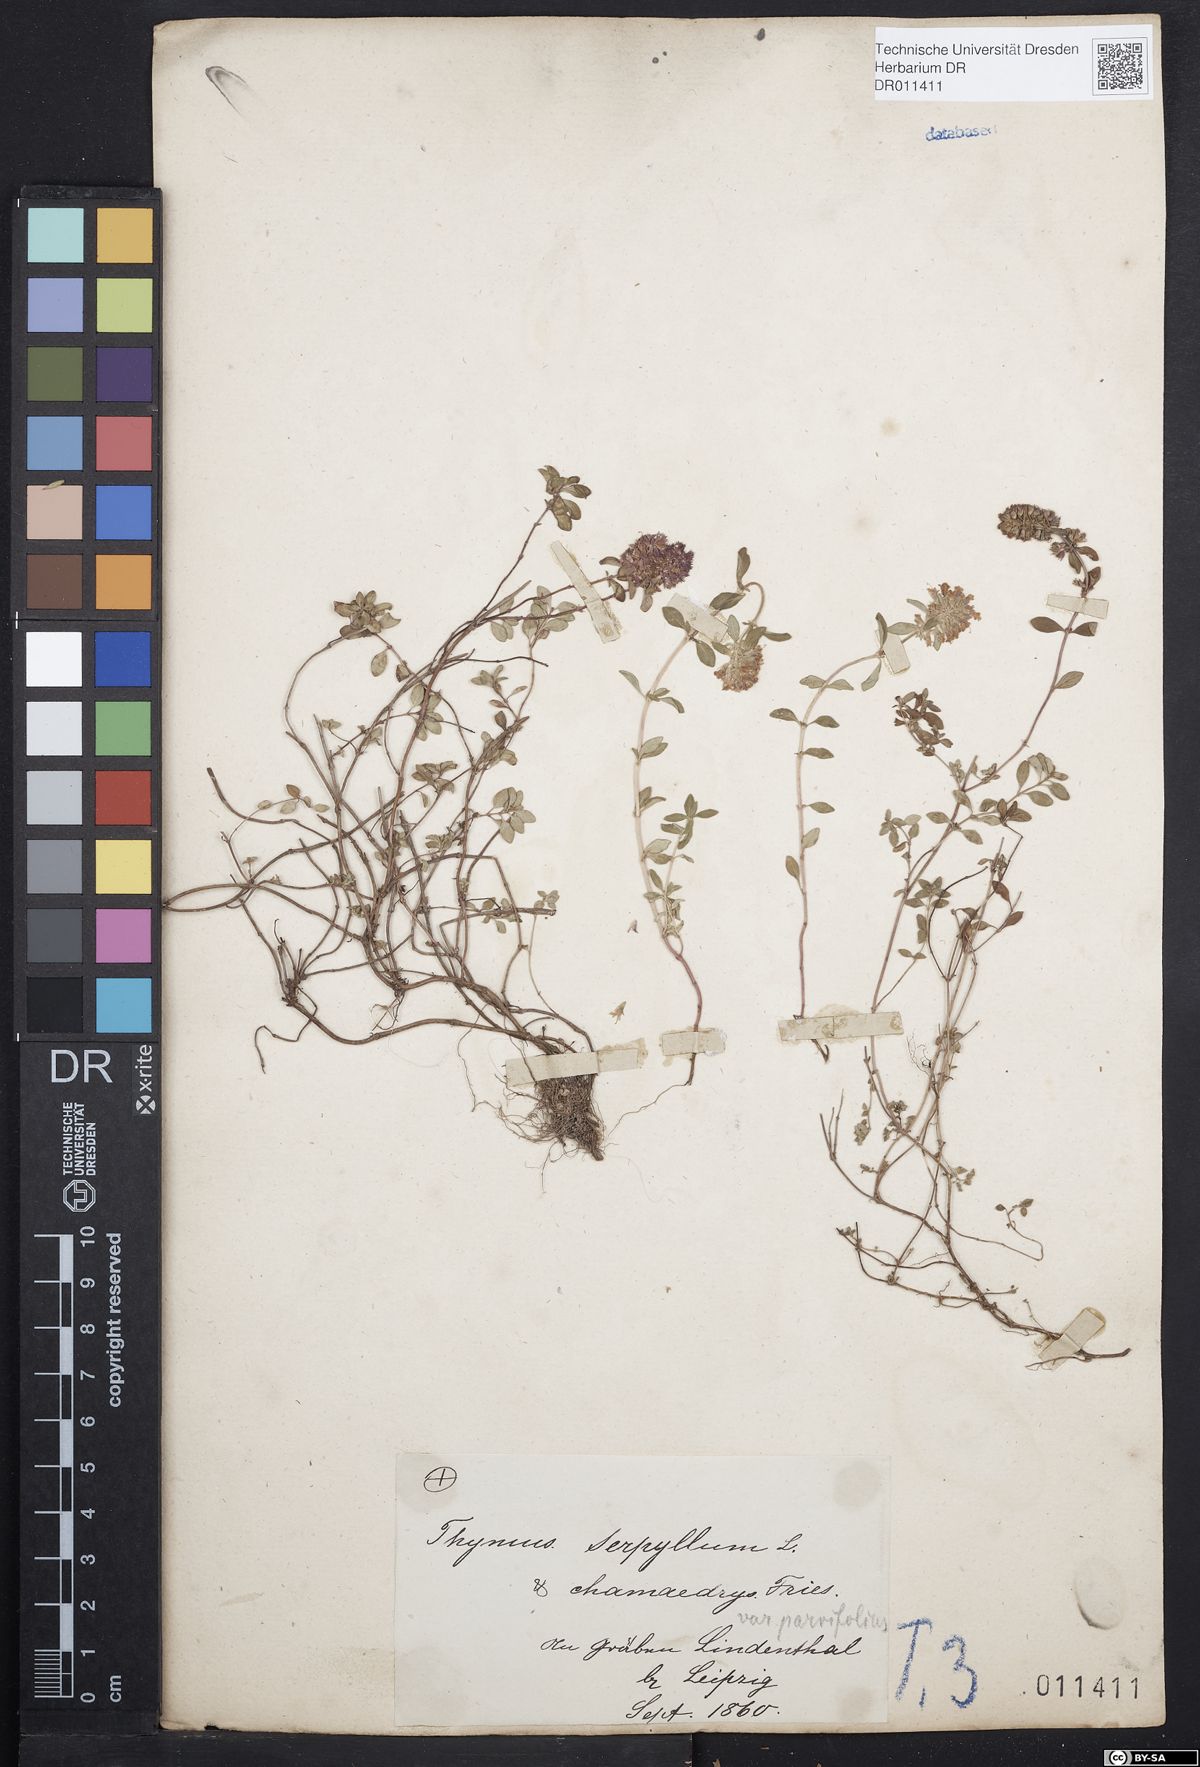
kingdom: Plantae
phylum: Tracheophyta
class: Magnoliopsida
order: Lamiales
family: Lamiaceae
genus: Thymus
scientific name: Thymus pulegioides
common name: Large thyme
